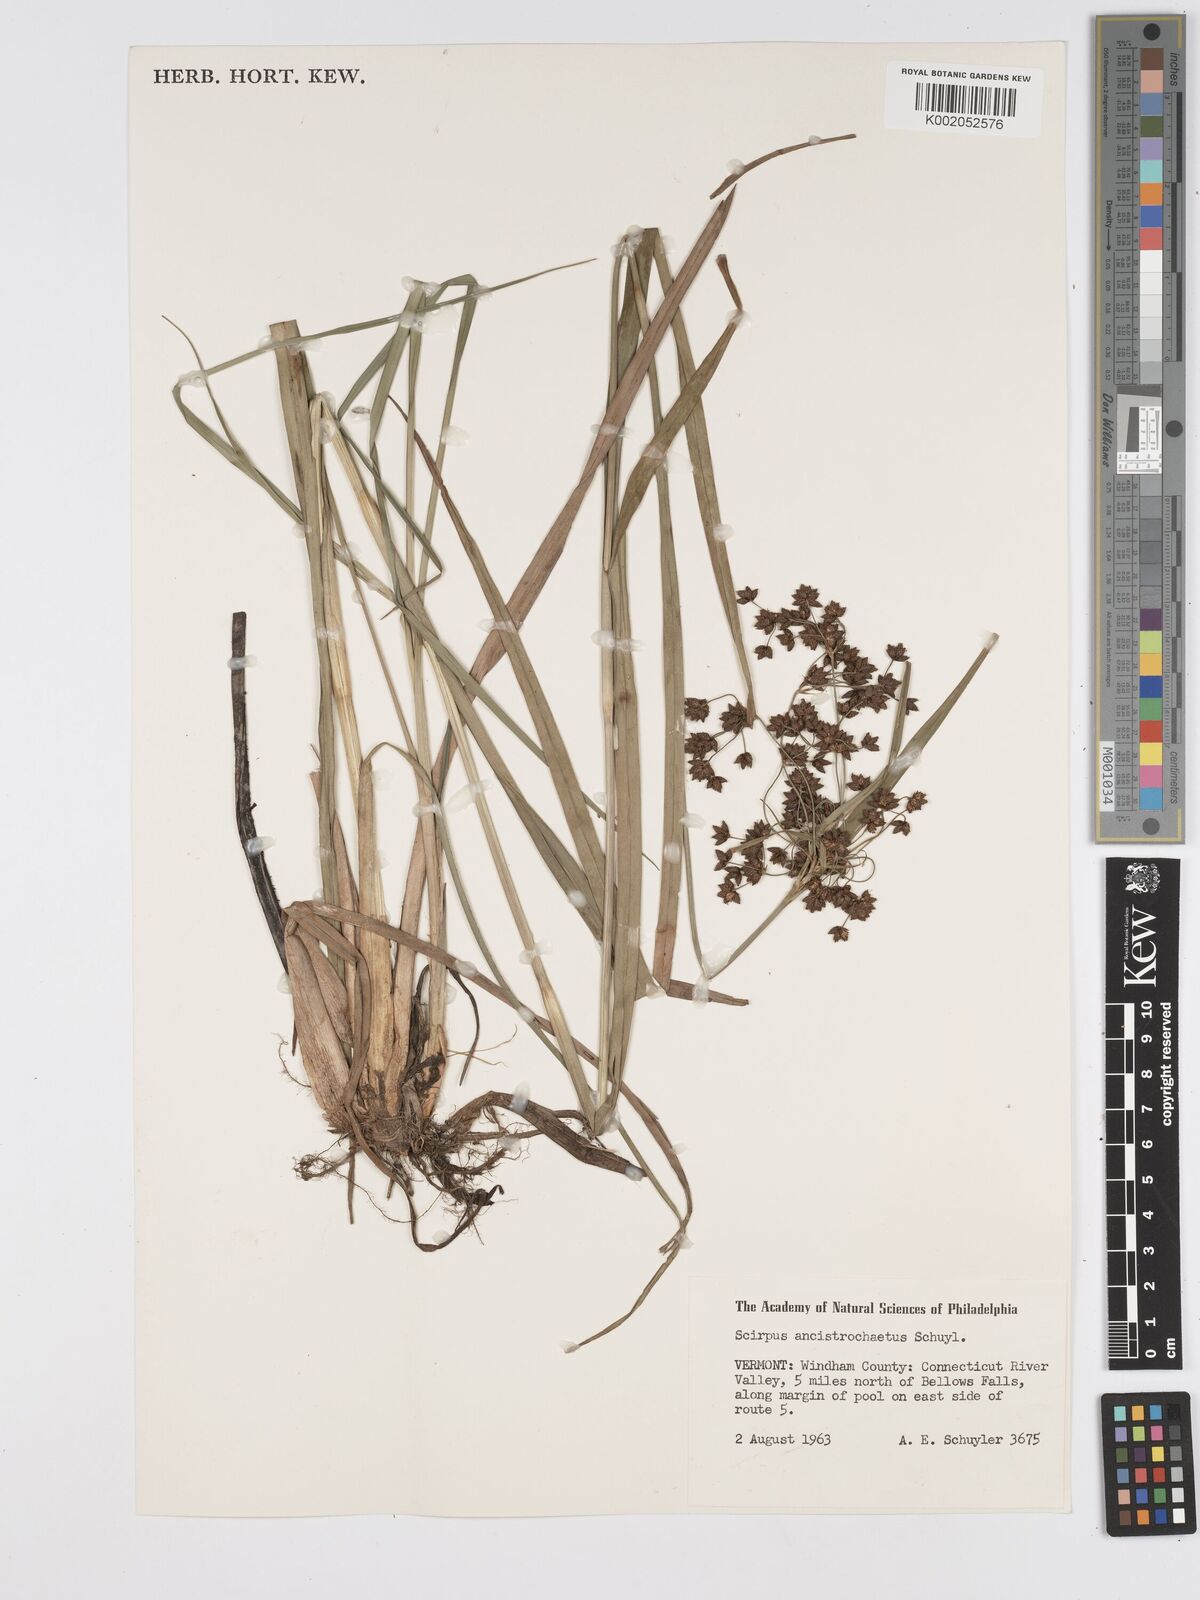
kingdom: Plantae
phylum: Tracheophyta
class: Liliopsida
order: Poales
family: Cyperaceae
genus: Scirpus
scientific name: Scirpus ancistrochaetus
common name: Northeastern bulrush
